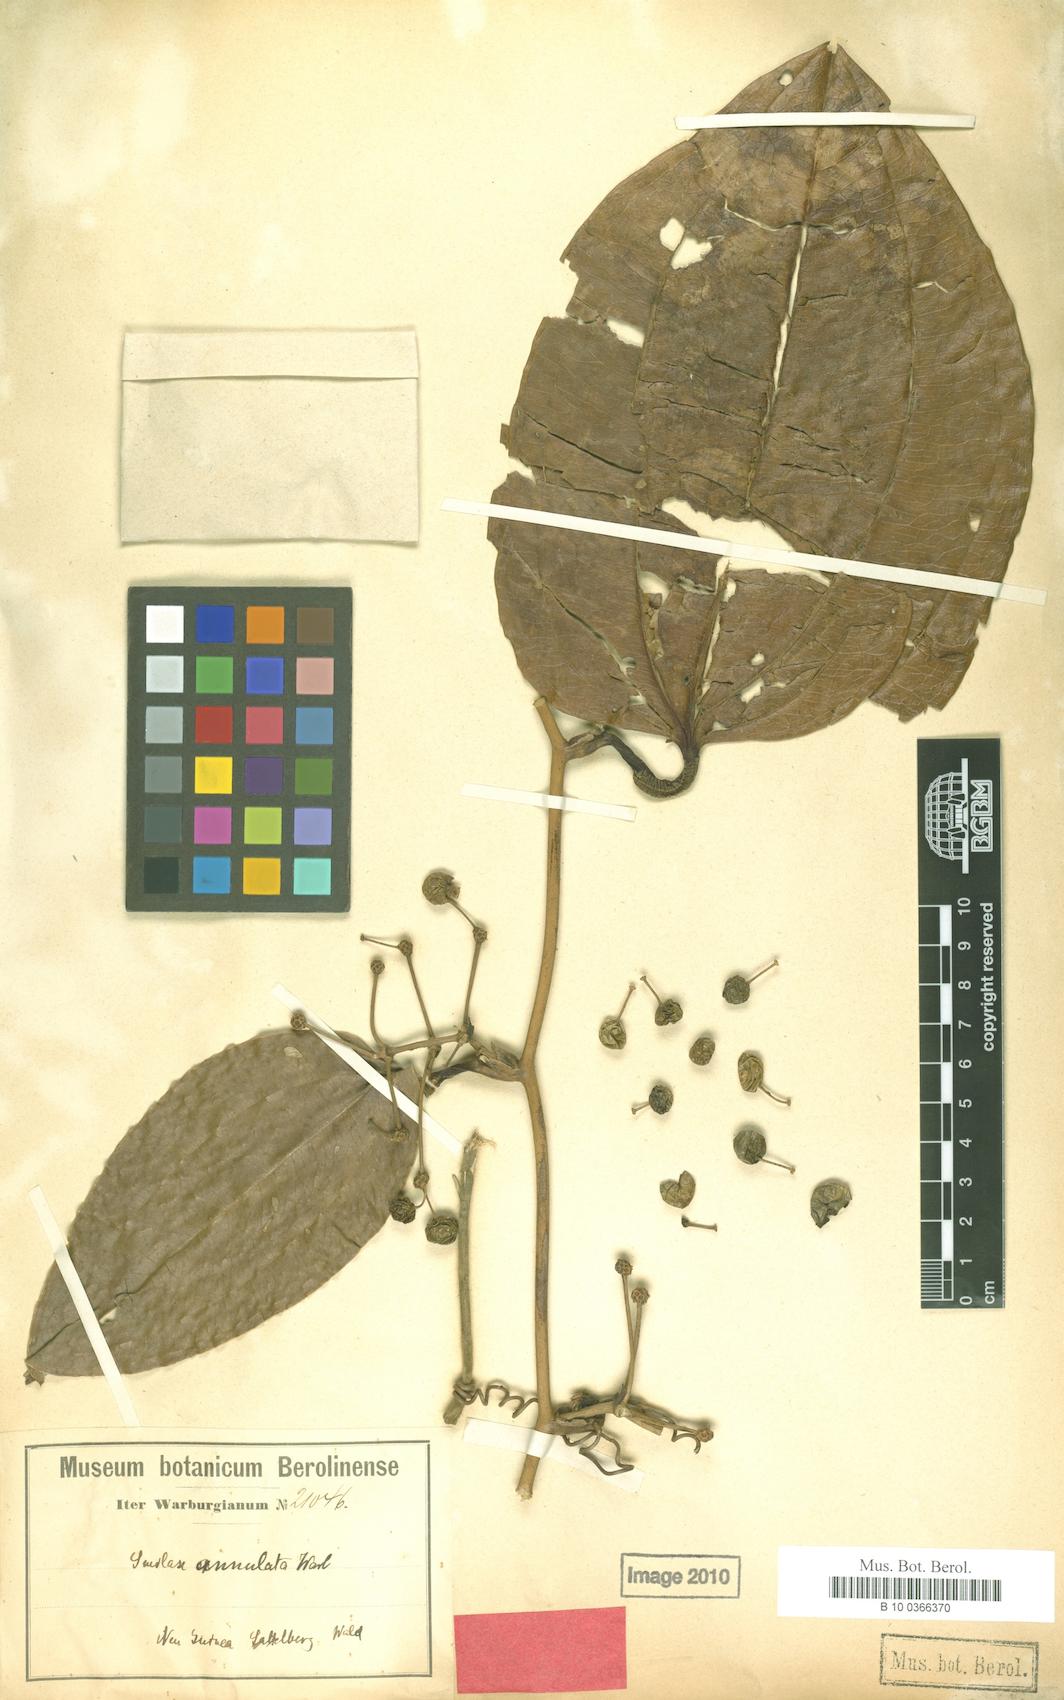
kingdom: Plantae
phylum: Tracheophyta
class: Liliopsida
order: Liliales
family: Smilacaceae
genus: Smilax
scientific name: Smilax annulata
